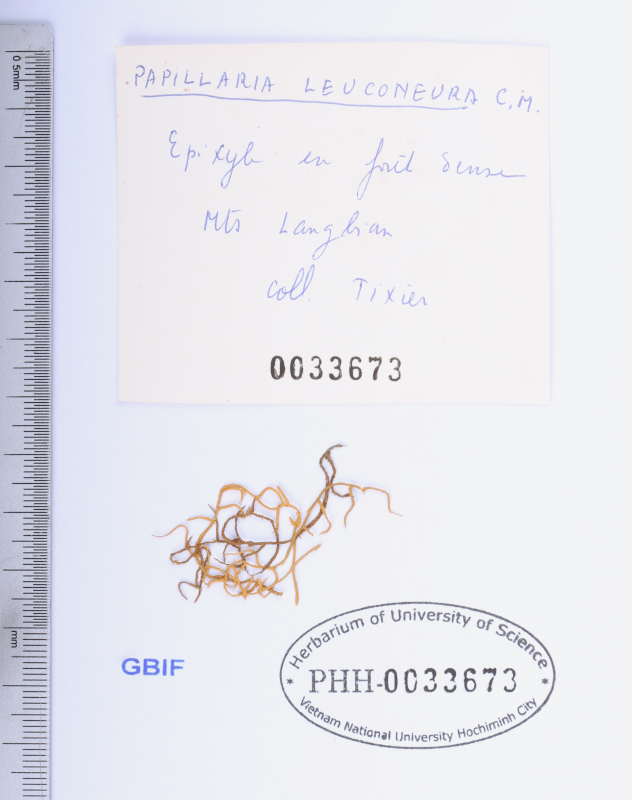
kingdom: Plantae
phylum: Bryophyta
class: Bryopsida
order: Hypnales
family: Meteoriaceae
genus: Papillaria
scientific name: Papillaria leuconeura
